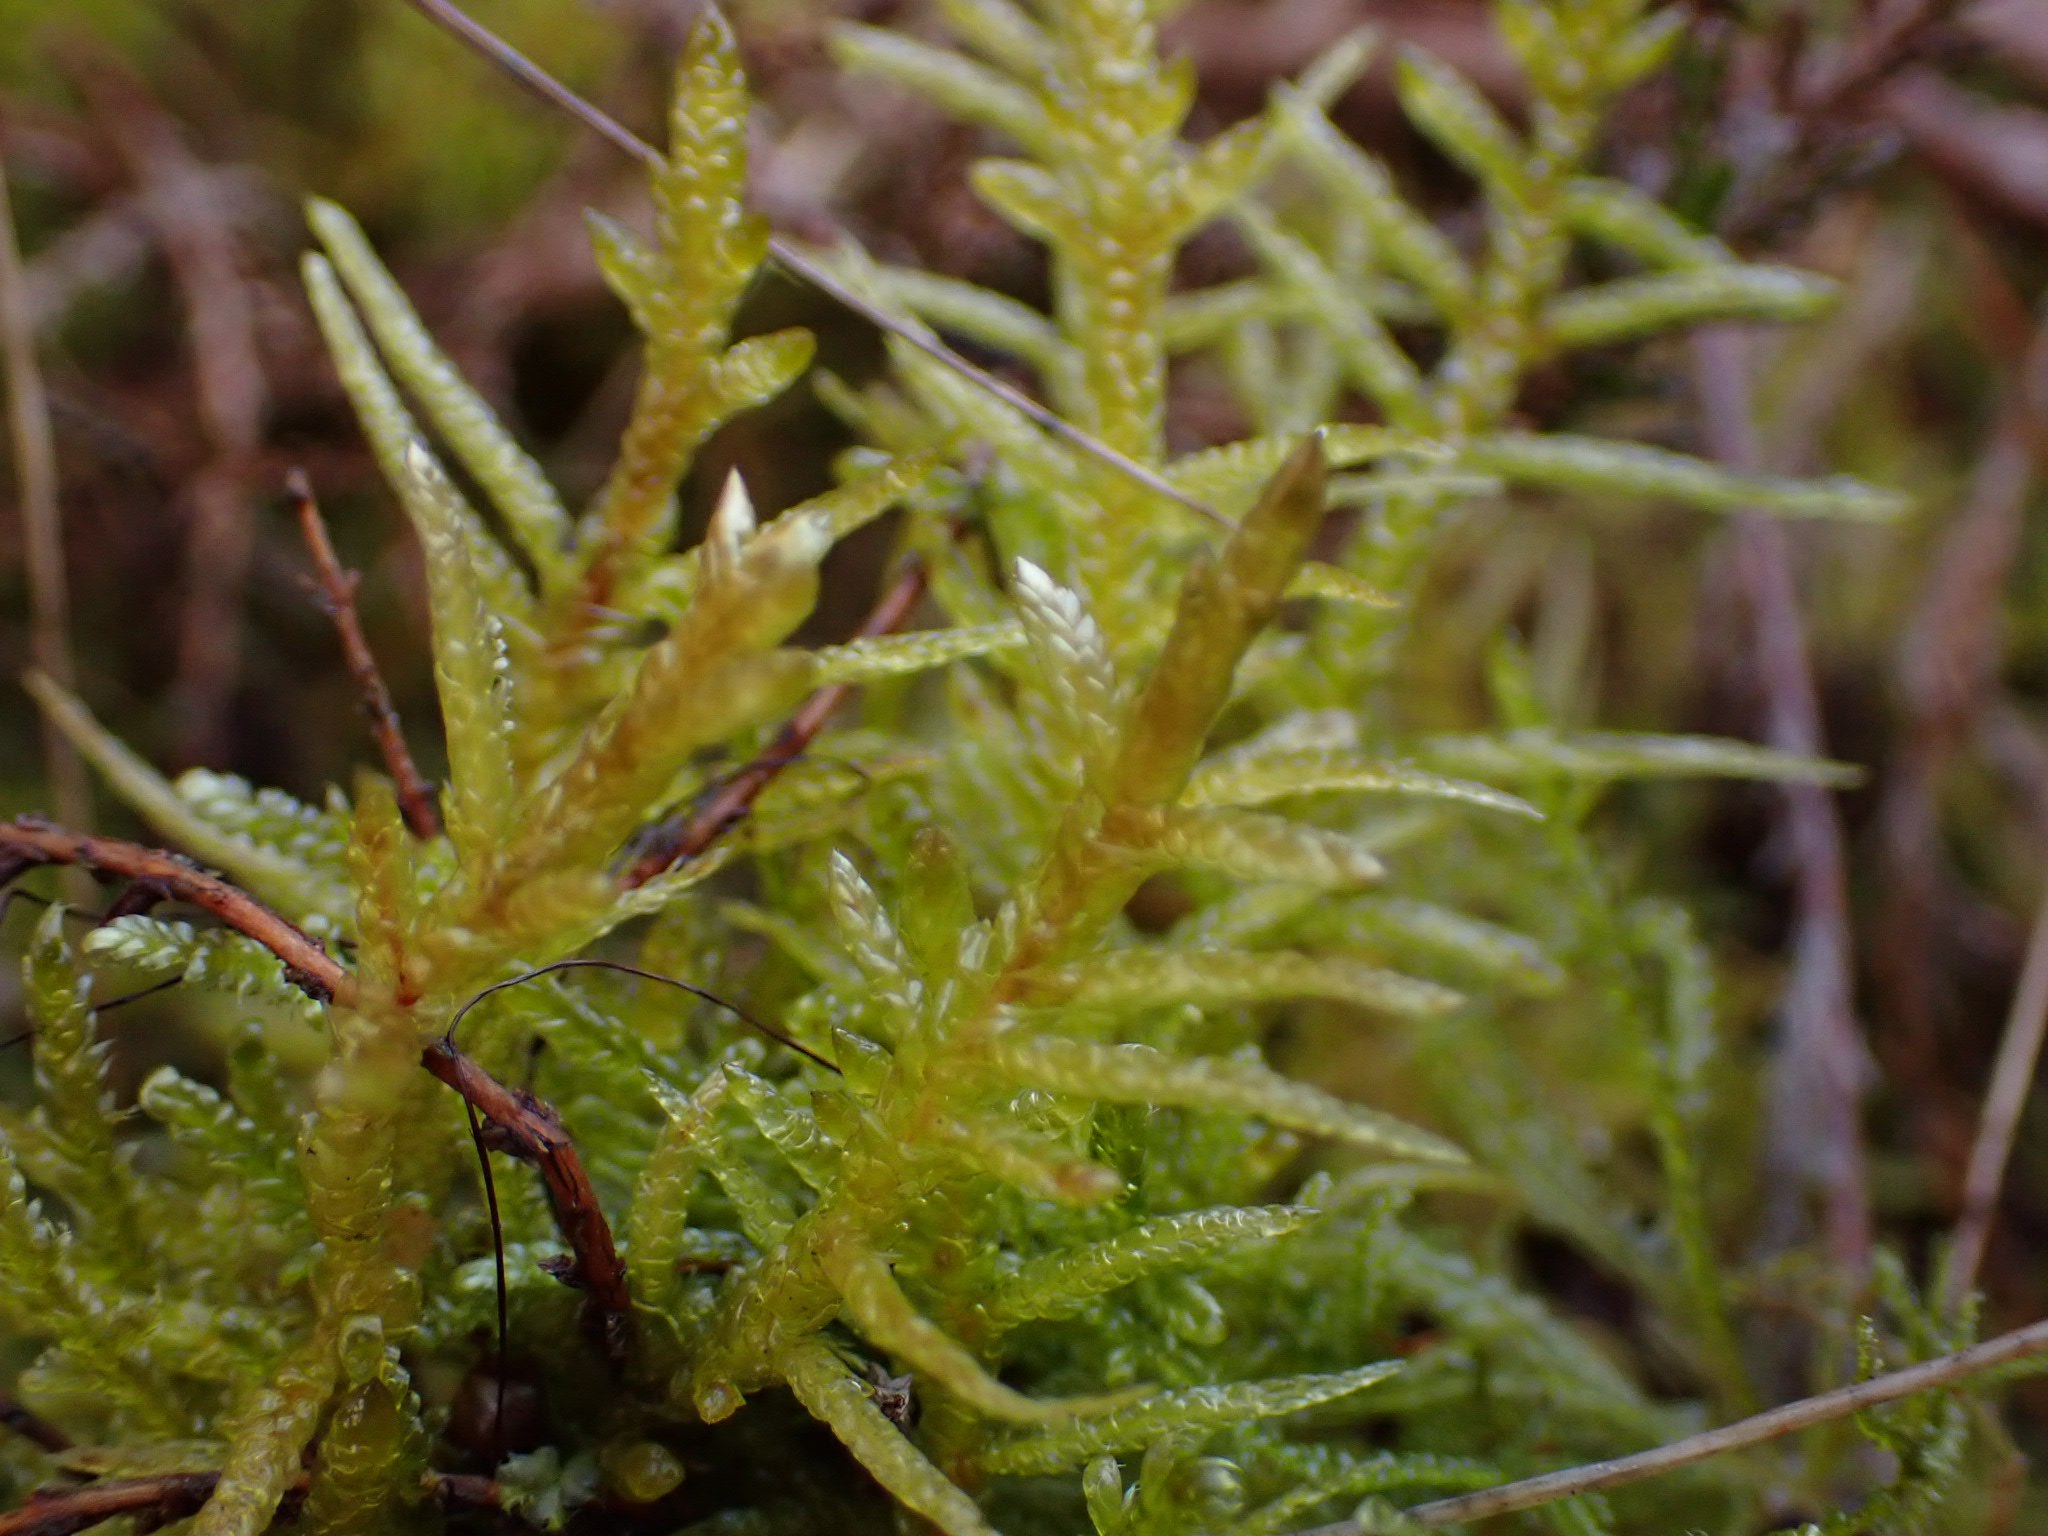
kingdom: Plantae
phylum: Bryophyta
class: Bryopsida
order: Hypnales
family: Hylocomiaceae
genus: Pleurozium
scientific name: Pleurozium schreberi
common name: Trind fyrremos
